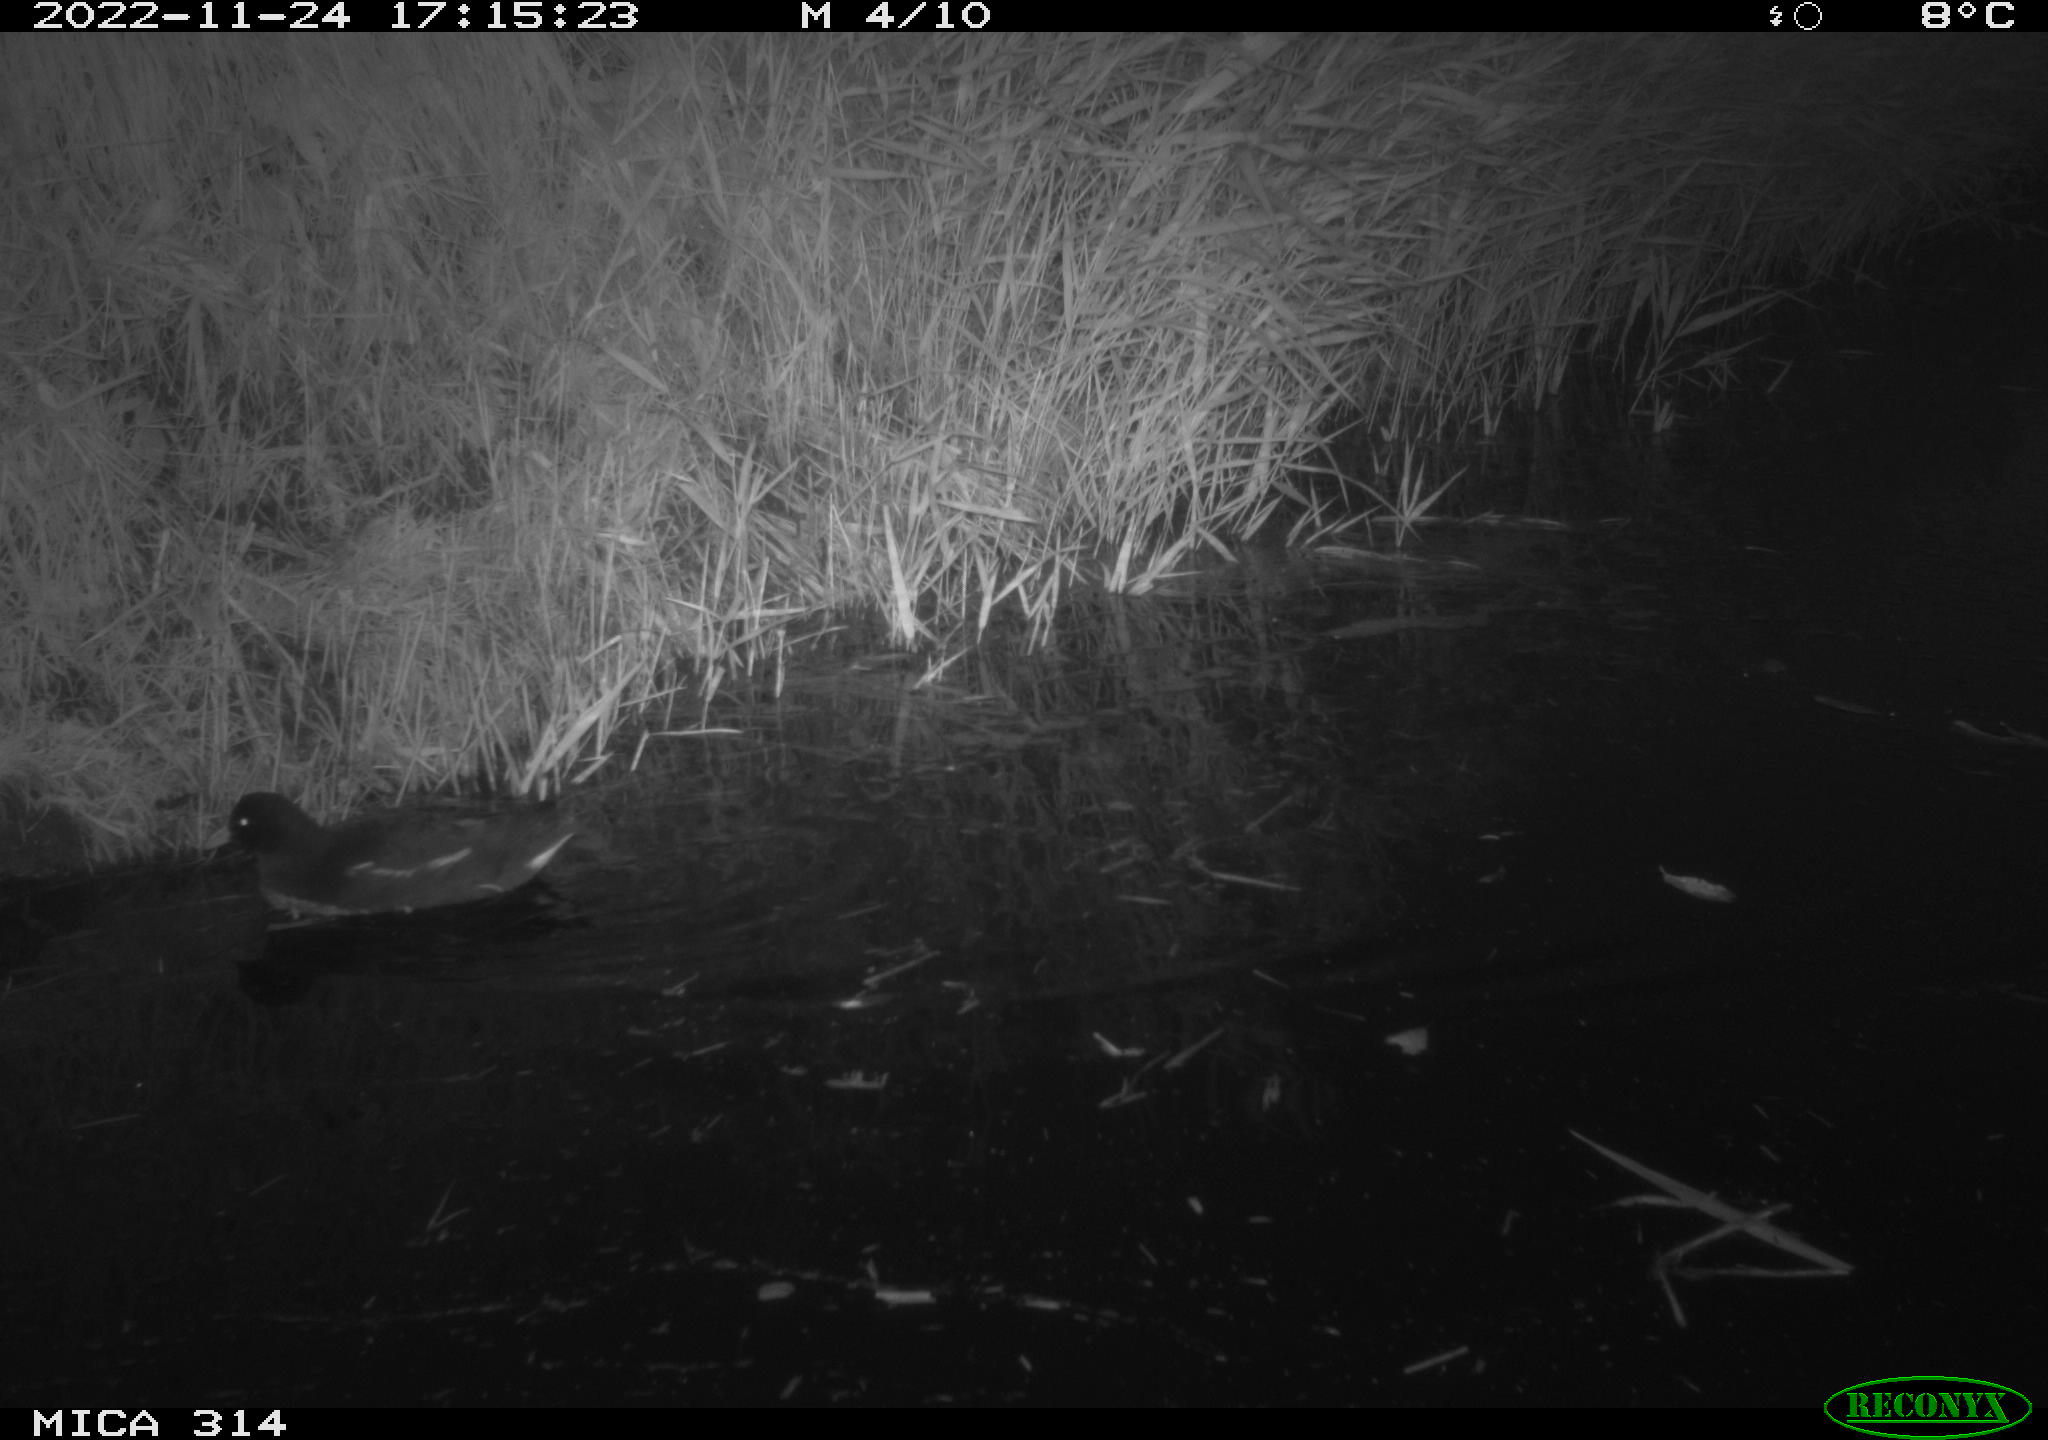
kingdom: Animalia
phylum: Chordata
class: Aves
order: Gruiformes
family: Rallidae
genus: Gallinula
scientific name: Gallinula chloropus
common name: Common moorhen
